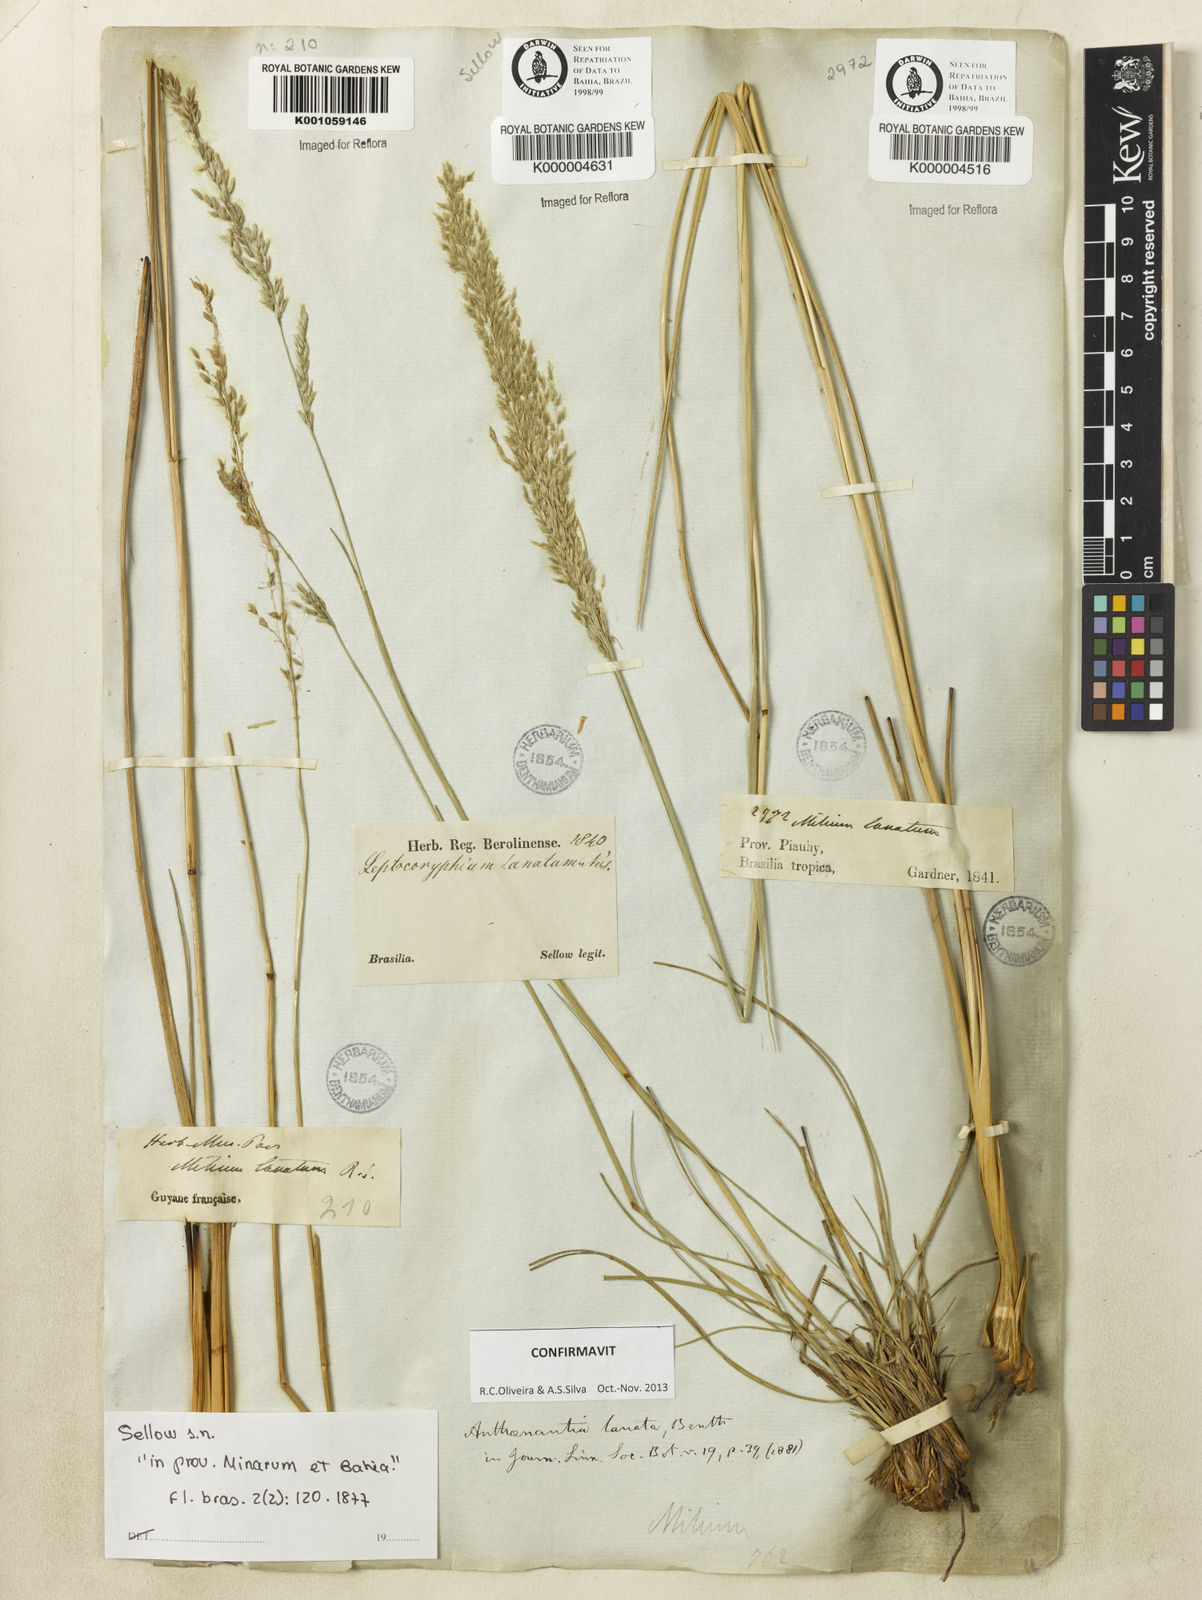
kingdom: Plantae
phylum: Tracheophyta
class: Liliopsida
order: Poales
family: Poaceae
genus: Anthenantia
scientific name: Anthenantia lanata
